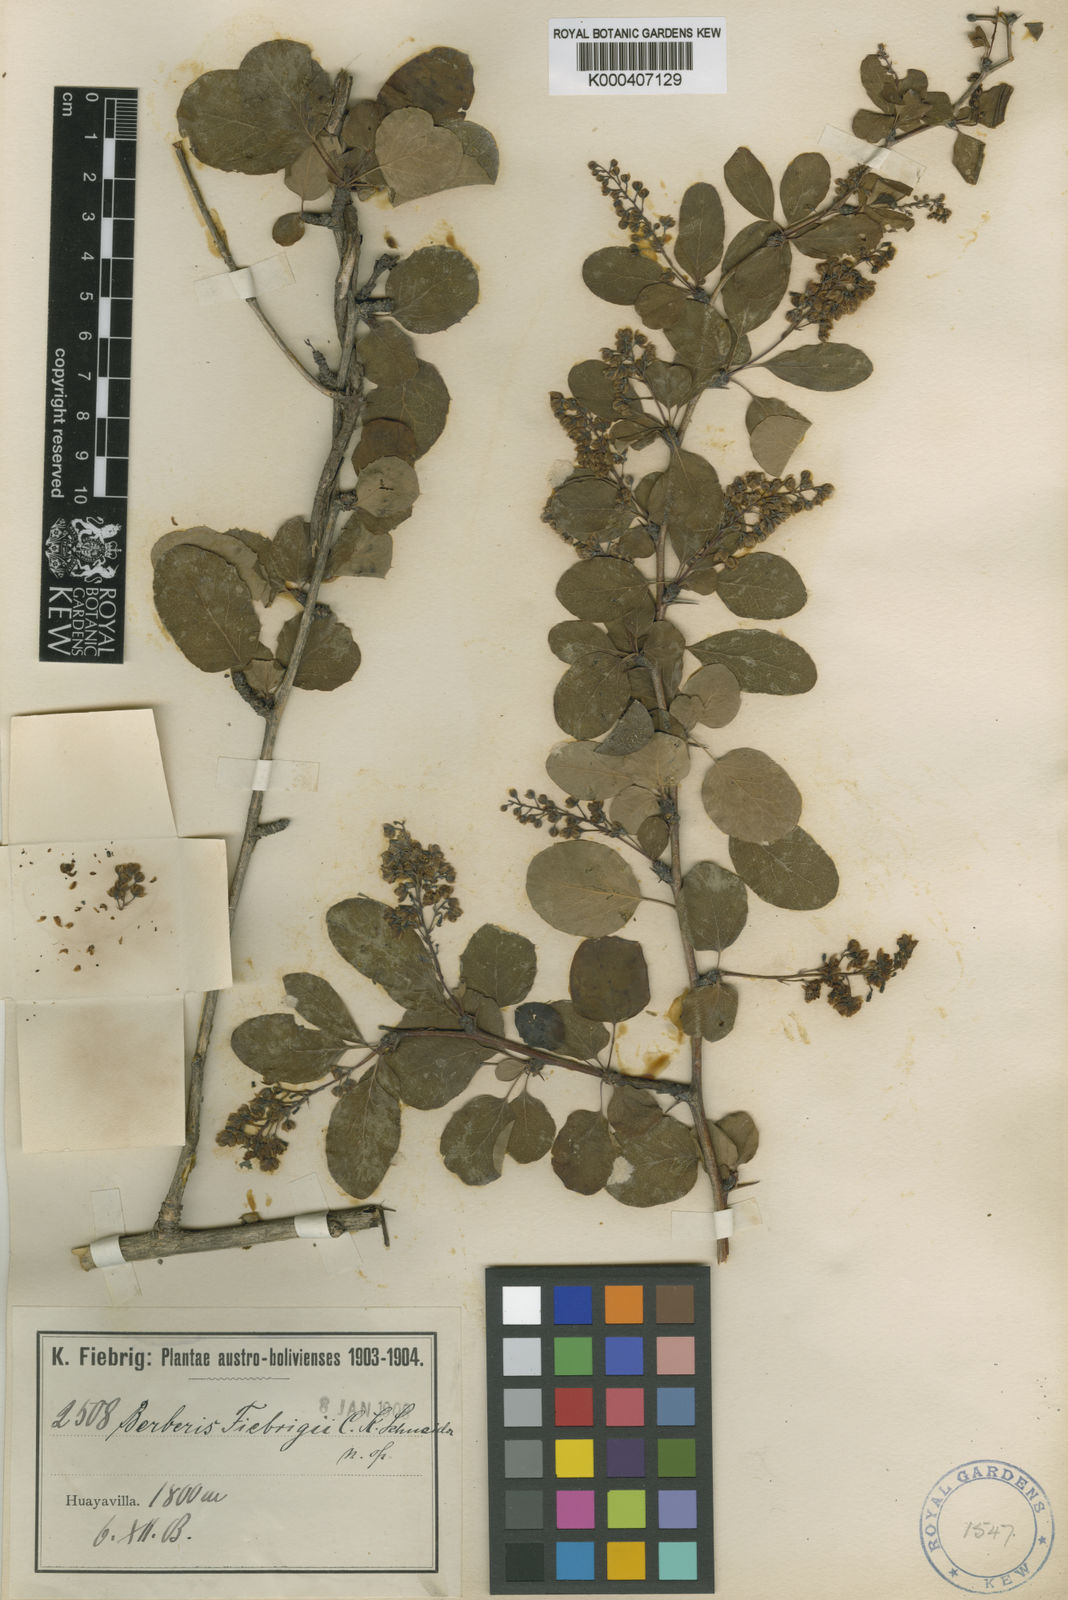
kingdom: Plantae
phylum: Tracheophyta
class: Magnoliopsida
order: Ranunculales
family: Berberidaceae
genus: Berberis
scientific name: Berberis fiebrigii
